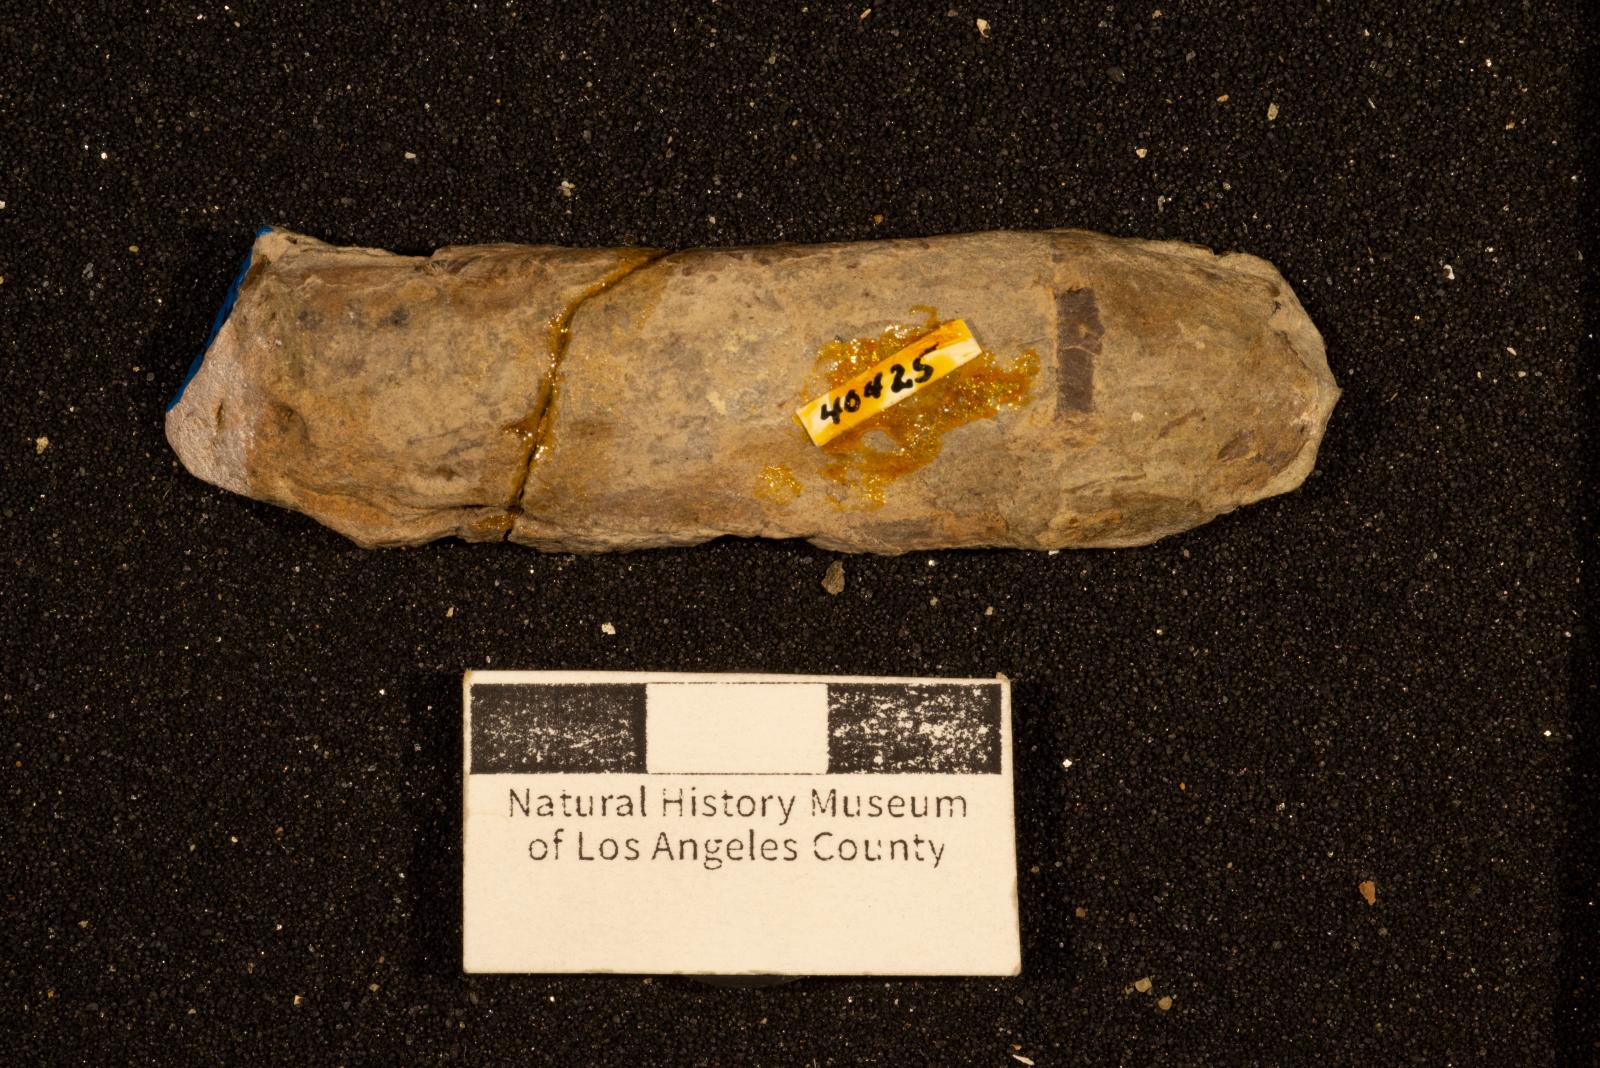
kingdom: Animalia
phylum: Mollusca
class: Bivalvia
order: Unionida
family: Iridinidae
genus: Leptosolen
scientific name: Leptosolen
